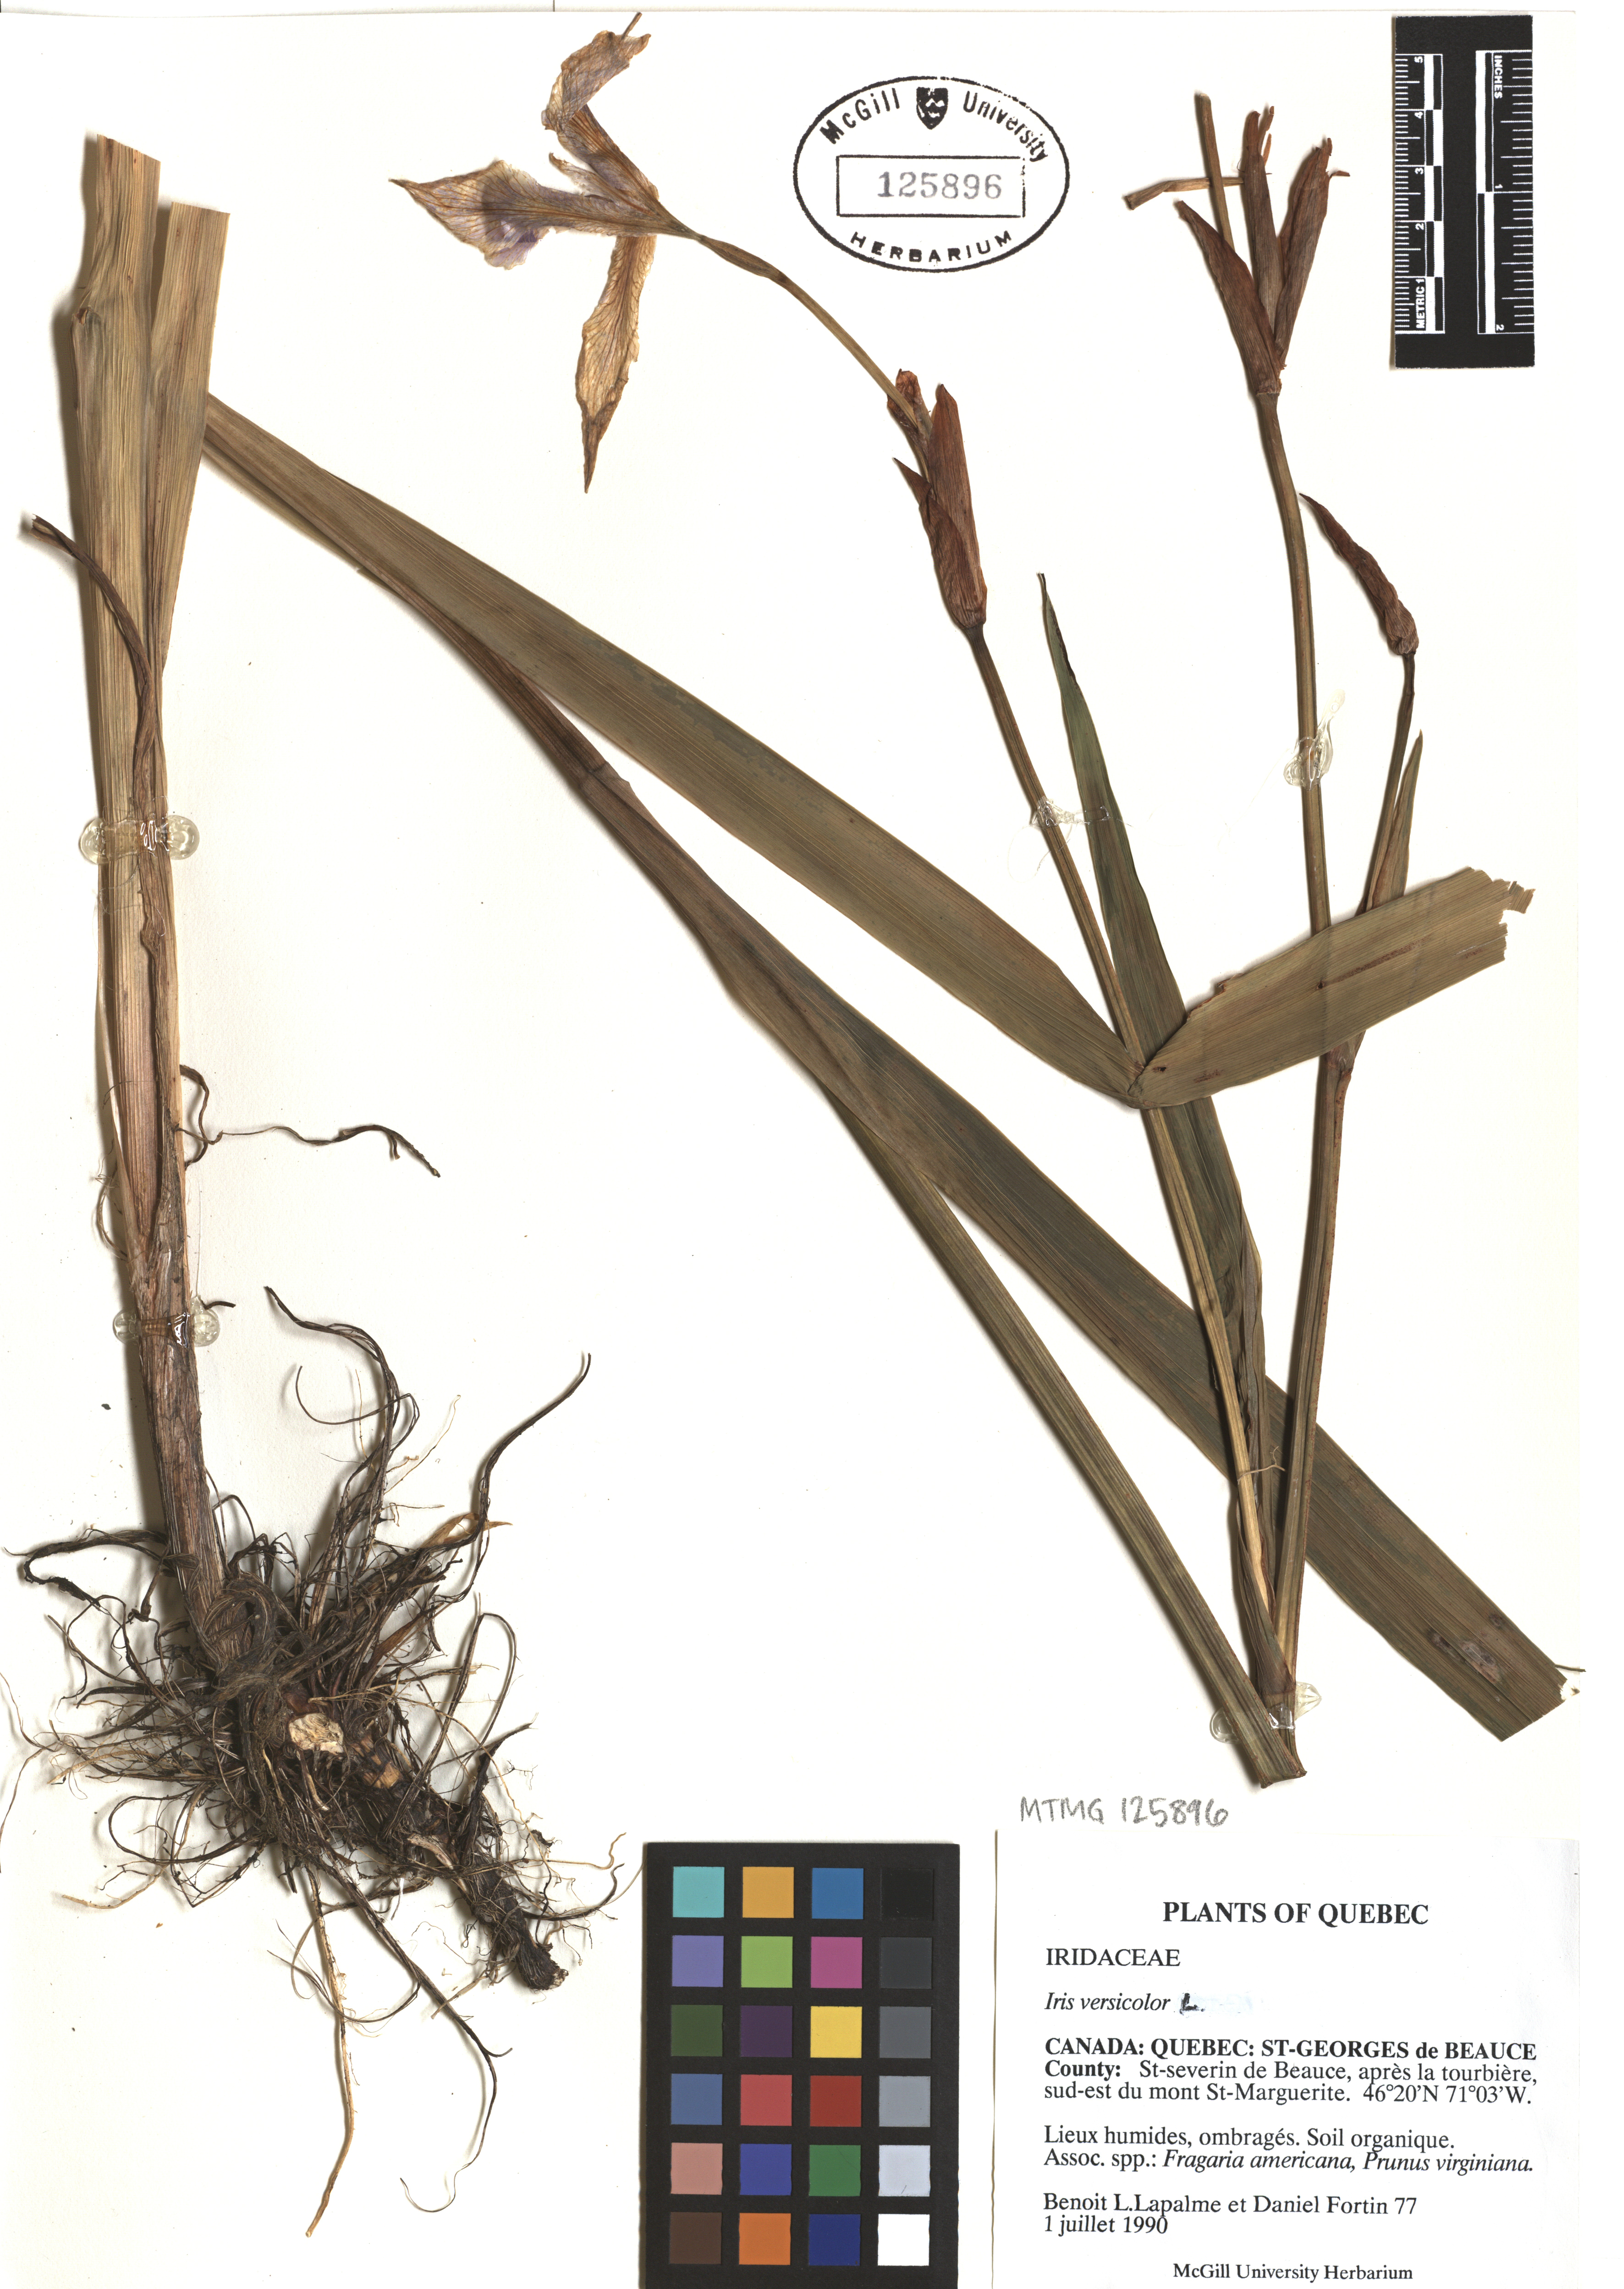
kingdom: Plantae
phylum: Tracheophyta
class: Liliopsida
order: Asparagales
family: Iridaceae
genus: Iris
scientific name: Iris versicolor
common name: Purple iris
